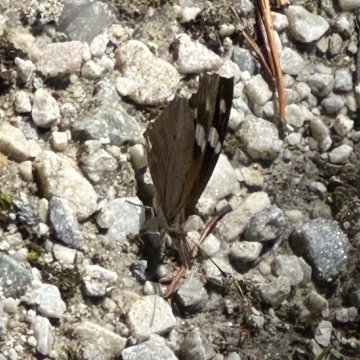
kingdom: Animalia
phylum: Arthropoda
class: Insecta
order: Lepidoptera
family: Nymphalidae
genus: Libytheana
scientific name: Libytheana carinenta
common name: American Snout
